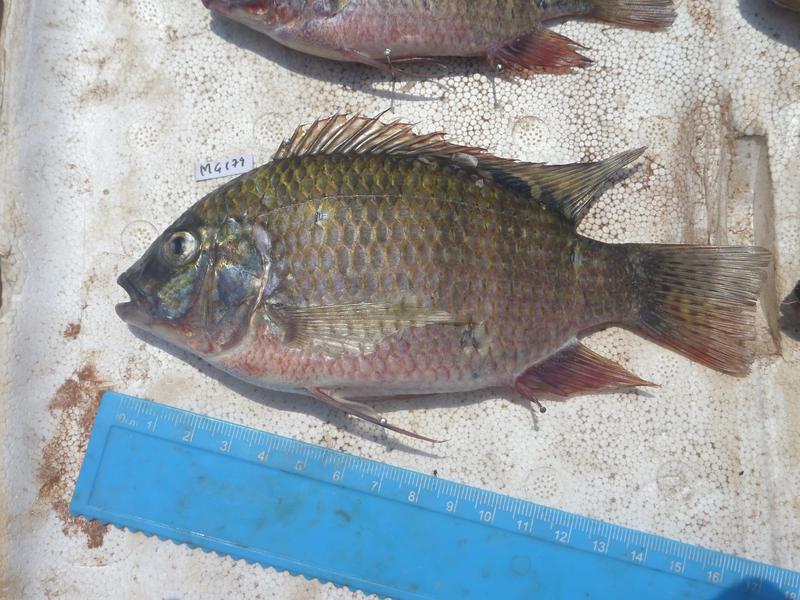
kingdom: Animalia
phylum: Chordata
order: Perciformes
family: Cichlidae
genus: Coptodon
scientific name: Coptodon rendalli
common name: Redbreast tilapia
